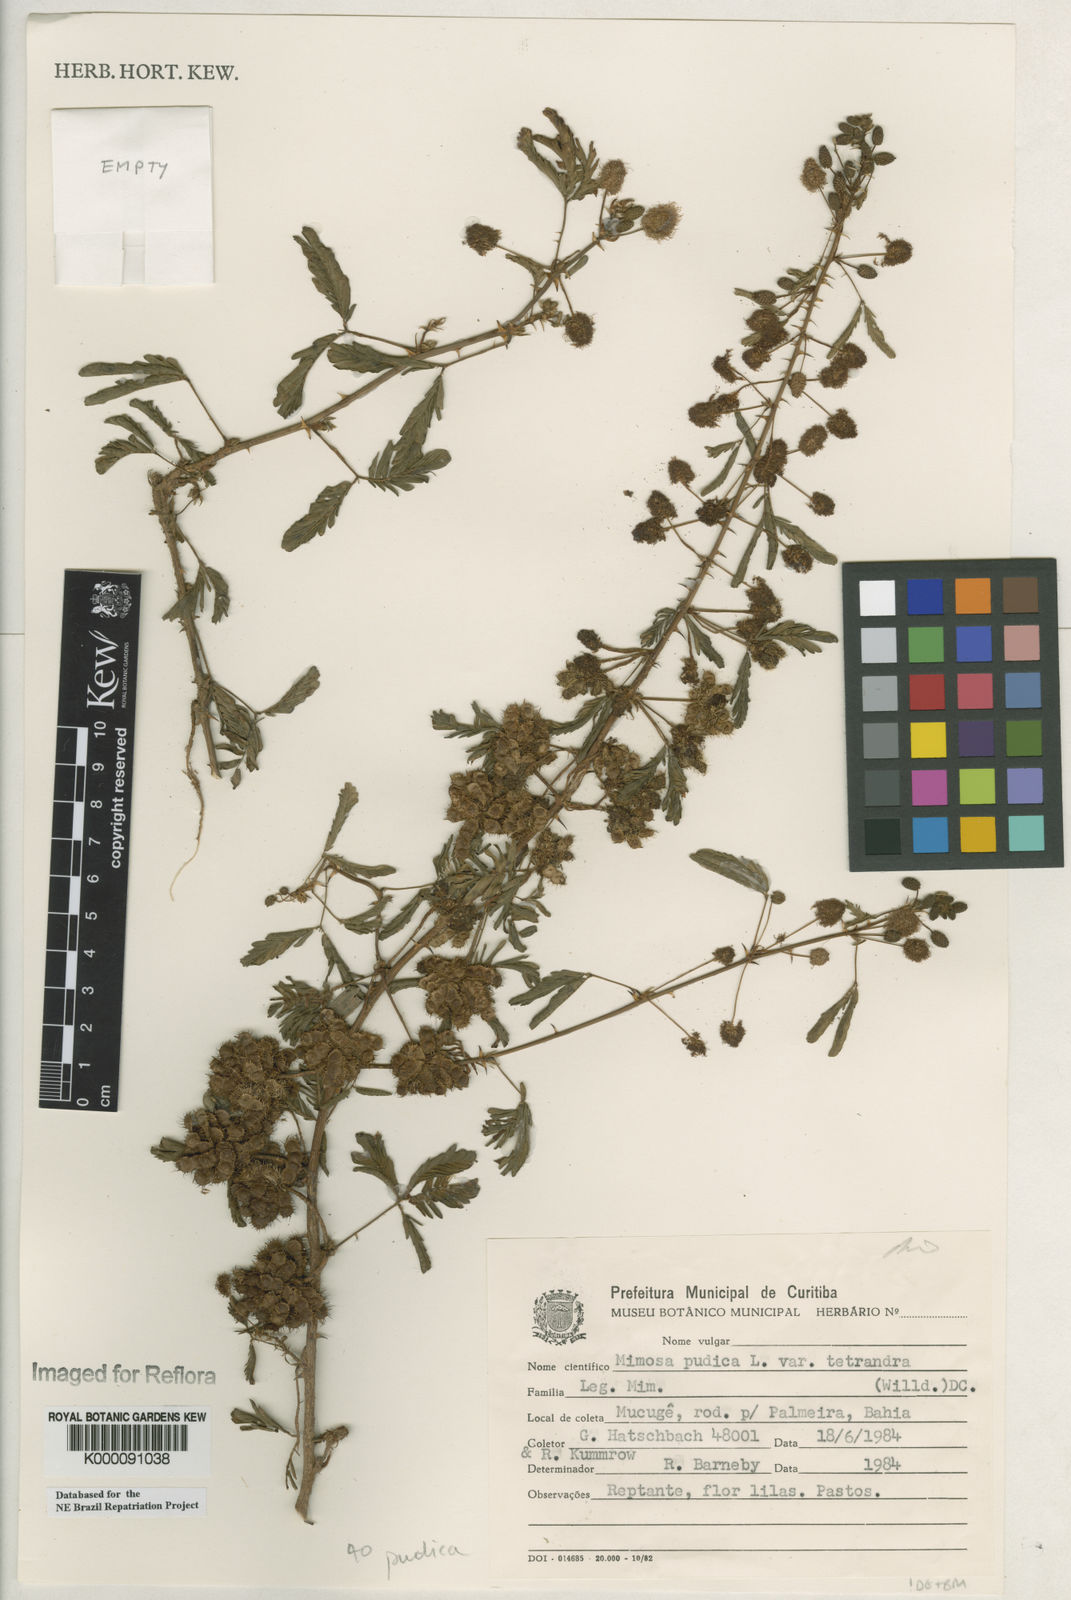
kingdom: Plantae
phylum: Tracheophyta
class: Magnoliopsida
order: Fabales
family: Fabaceae
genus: Mimosa
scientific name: Mimosa pudica
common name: Sensitive plant
